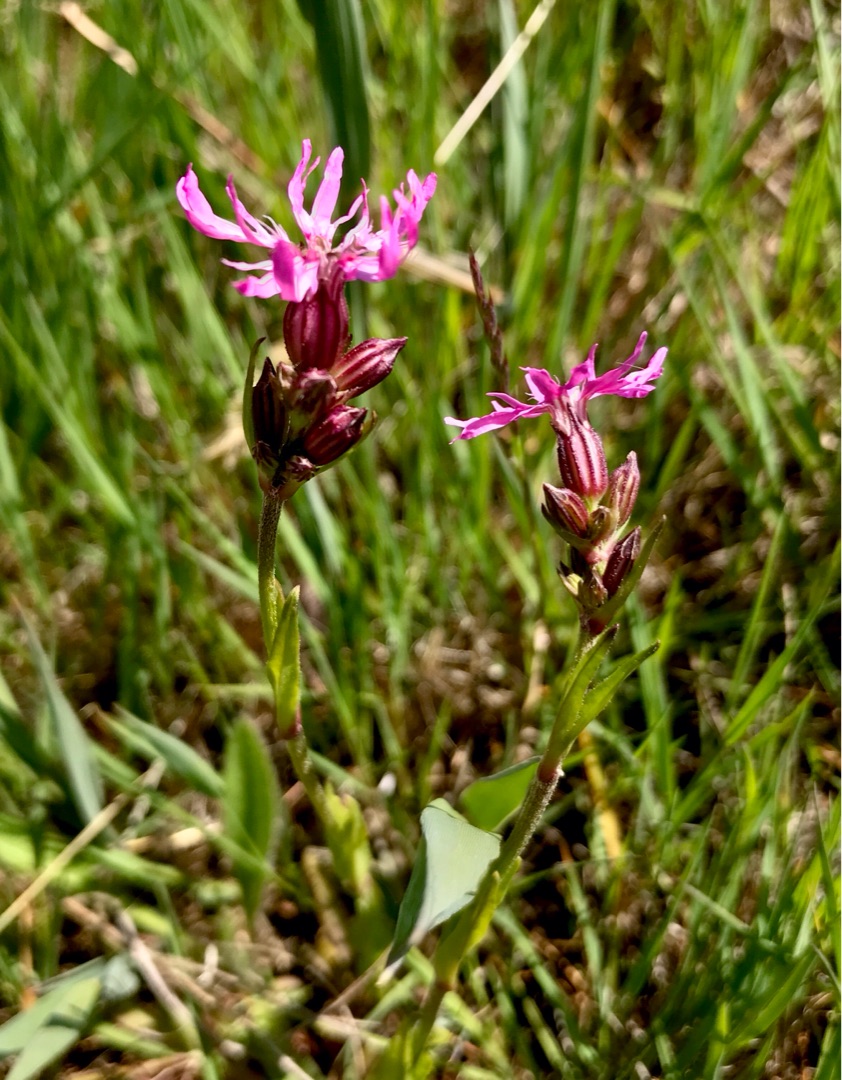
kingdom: Plantae
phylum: Tracheophyta
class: Magnoliopsida
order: Caryophyllales
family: Caryophyllaceae
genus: Silene
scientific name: Silene flos-cuculi
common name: Trævlekrone
